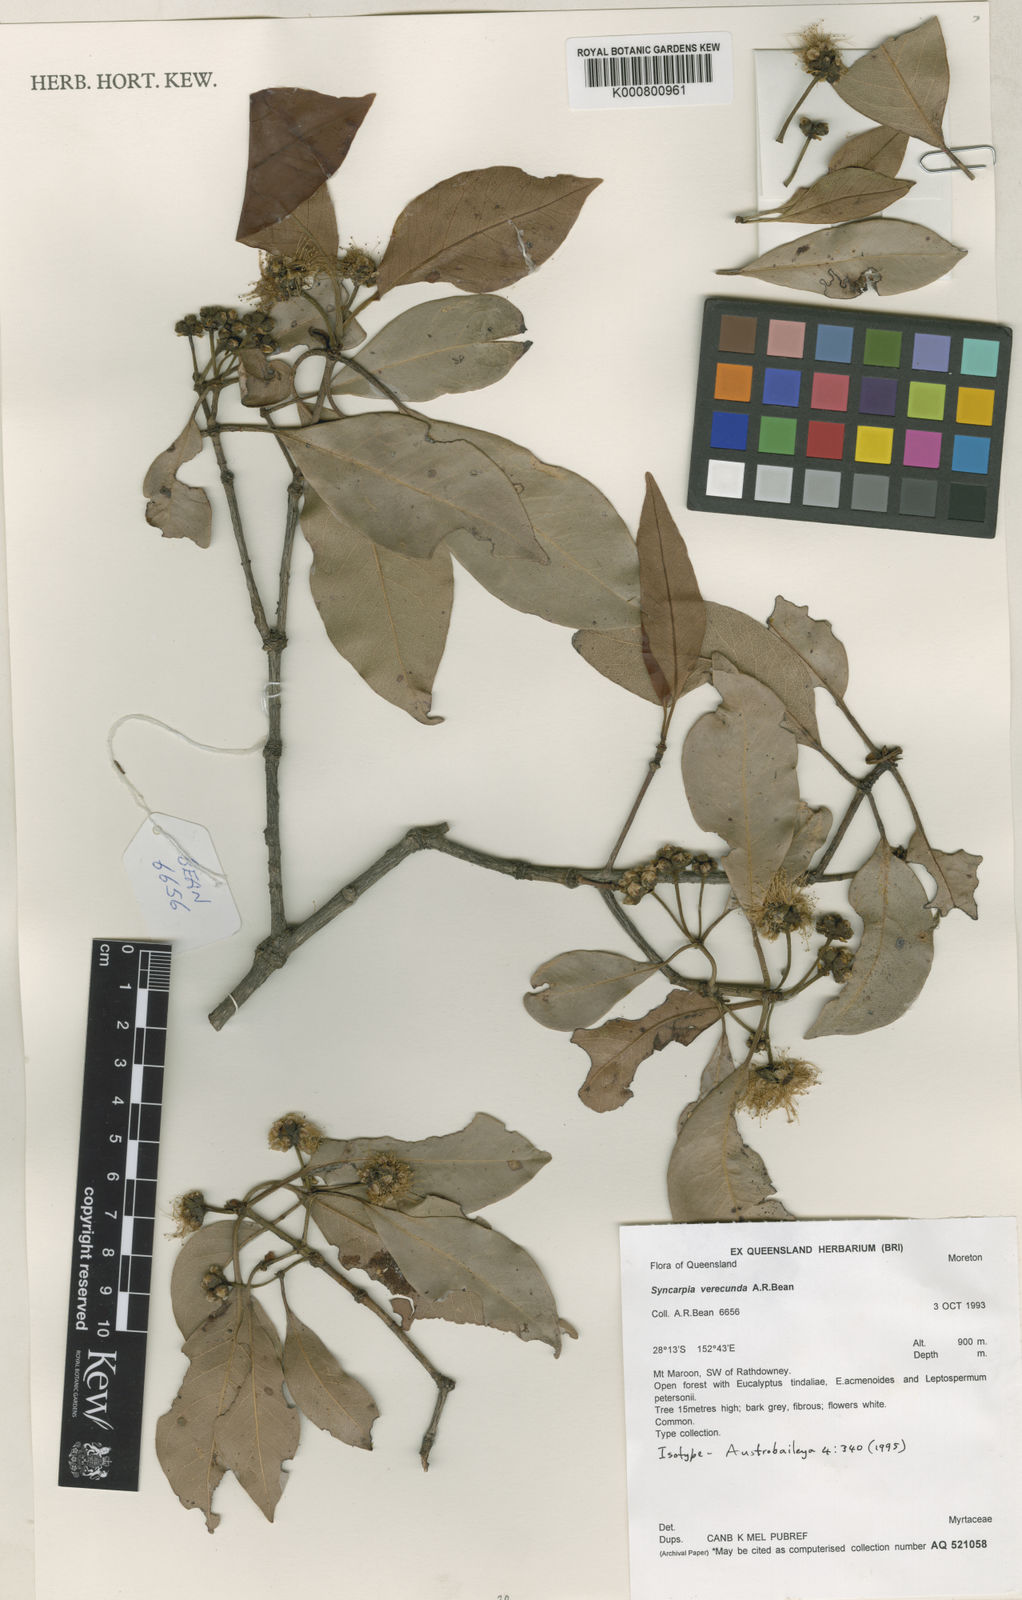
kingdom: Plantae
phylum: Tracheophyta
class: Magnoliopsida
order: Myrtales
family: Myrtaceae
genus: Syncarpia
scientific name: Syncarpia verecunda
